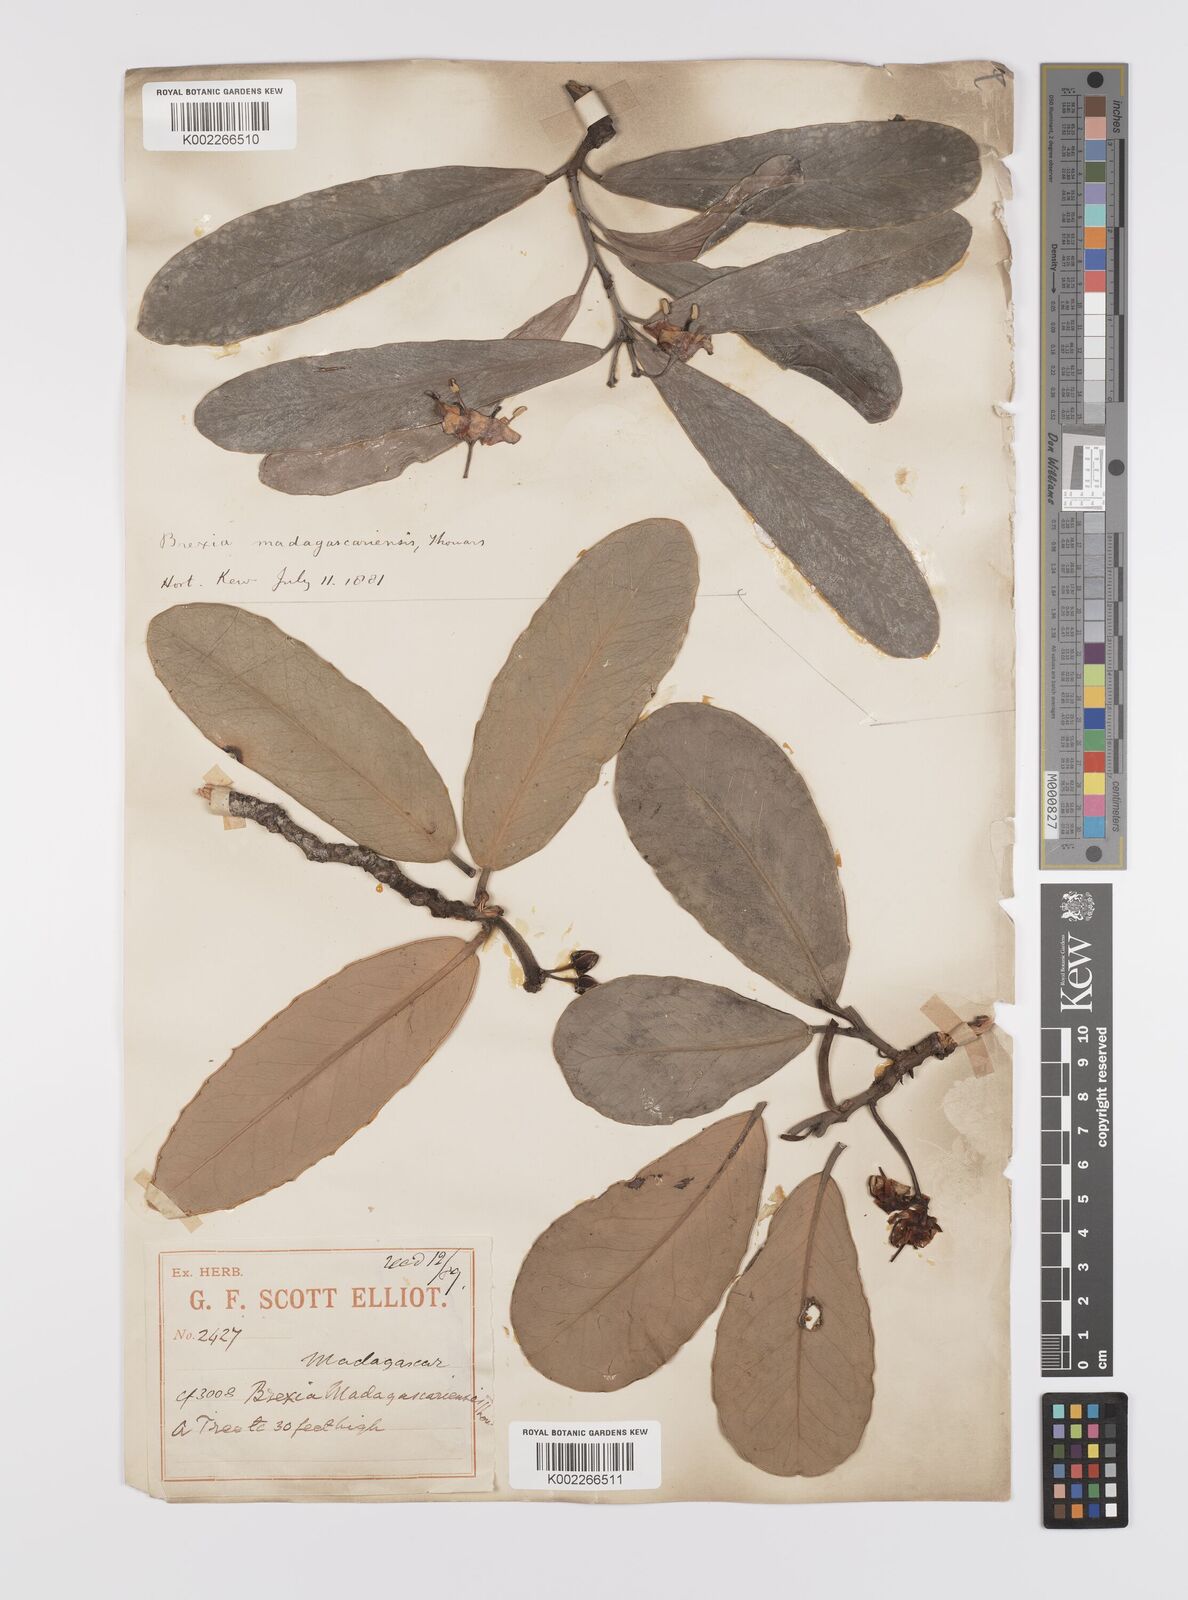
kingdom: Plantae
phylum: Tracheophyta
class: Magnoliopsida
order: Celastrales
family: Celastraceae
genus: Brexia
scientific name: Brexia madagascariensis
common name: Brexia
